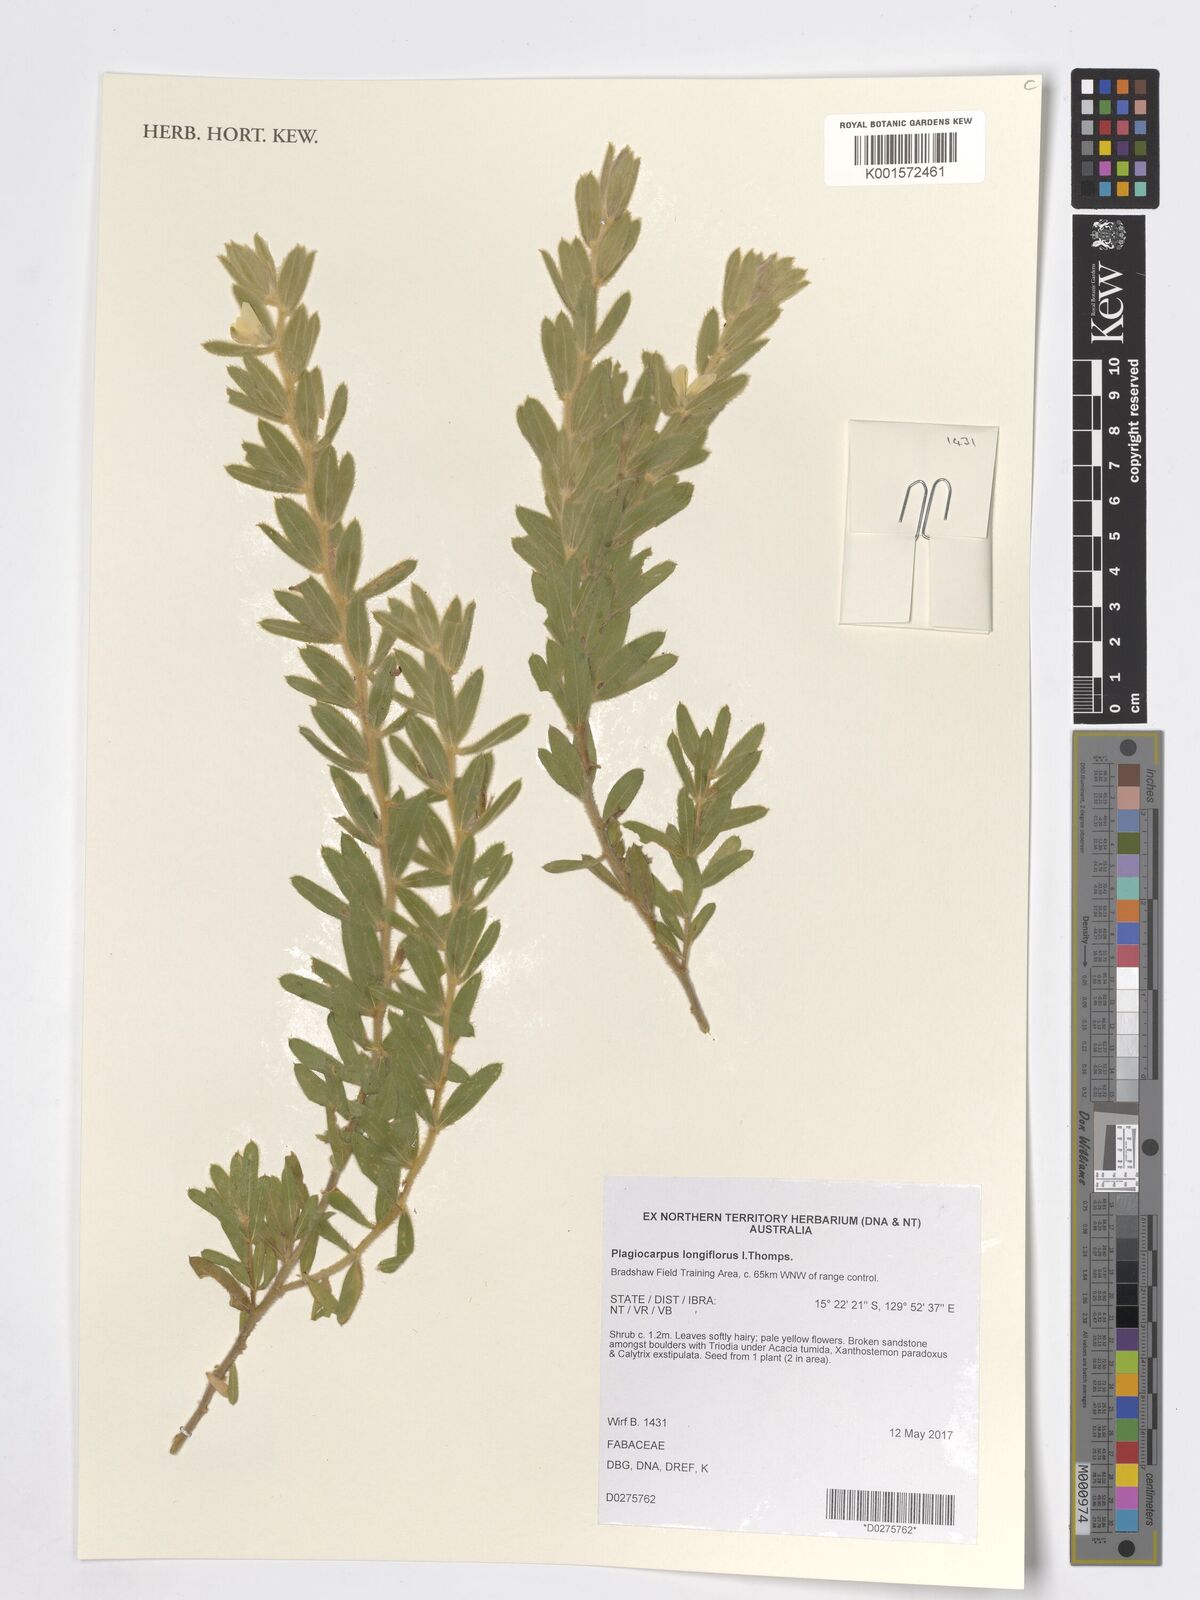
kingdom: Plantae
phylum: Tracheophyta
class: Magnoliopsida
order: Fabales
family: Fabaceae
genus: Plagiocarpus
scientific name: Plagiocarpus longiflorus
